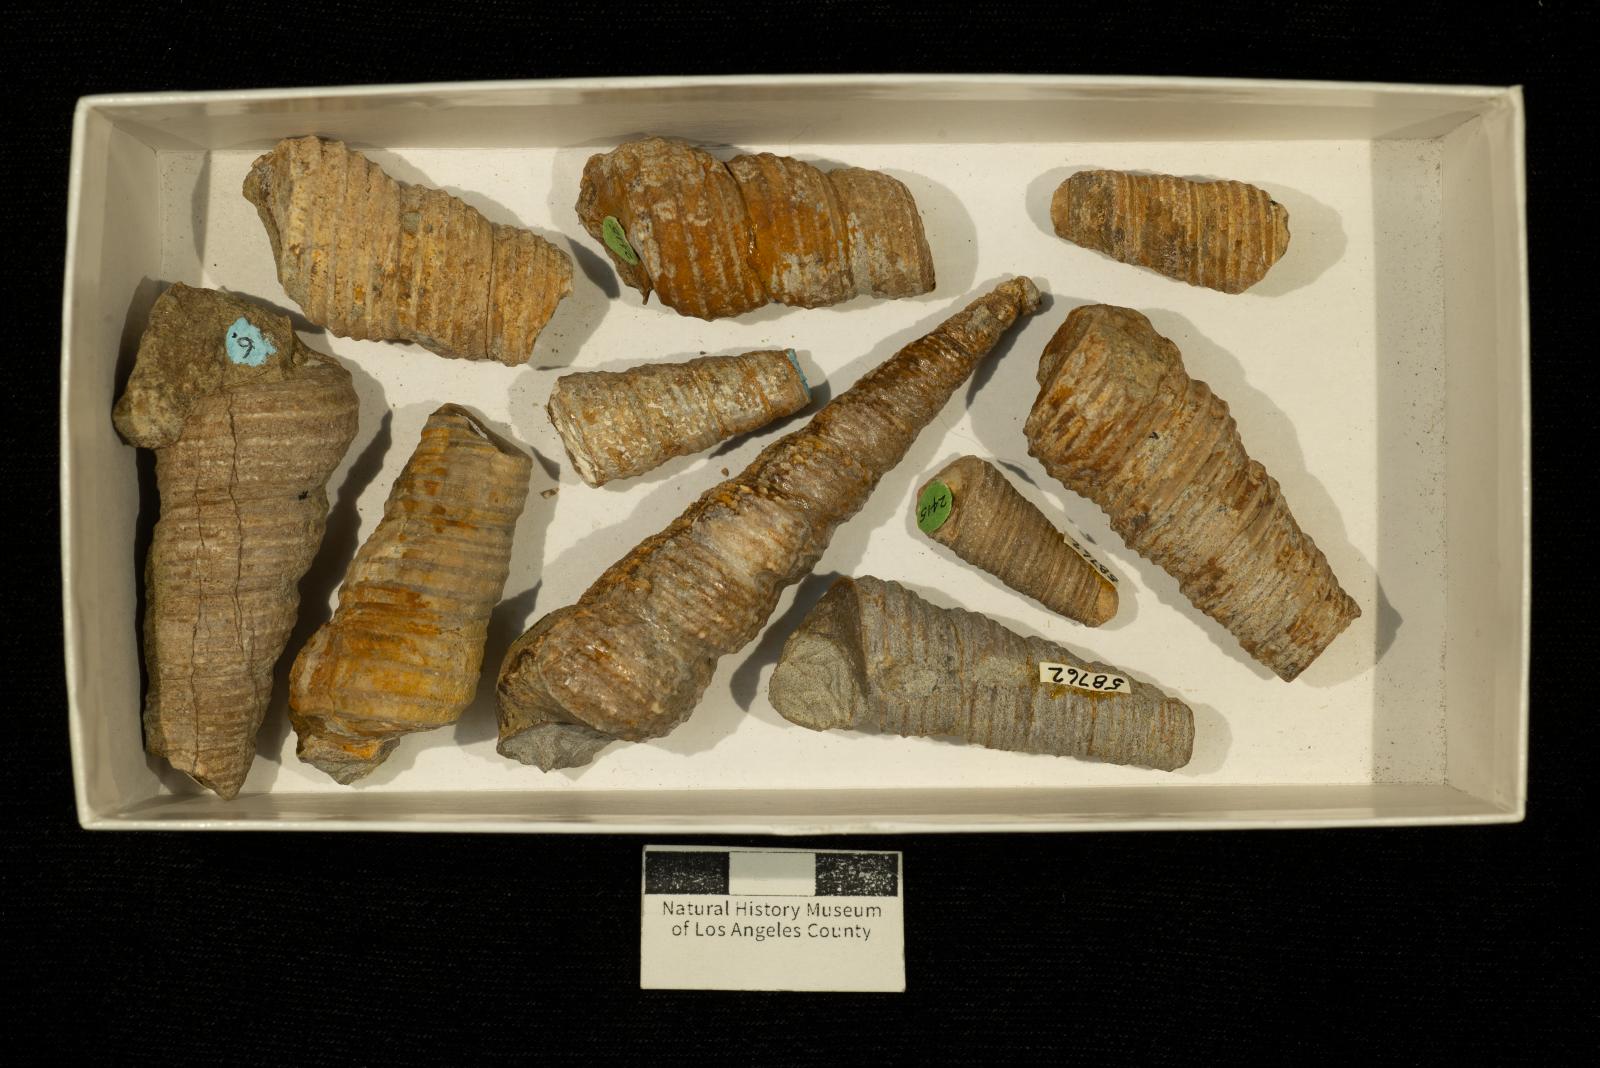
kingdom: Animalia
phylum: Mollusca
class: Gastropoda
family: Turritellidae
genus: Turritella
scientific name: Turritella chicoensis
